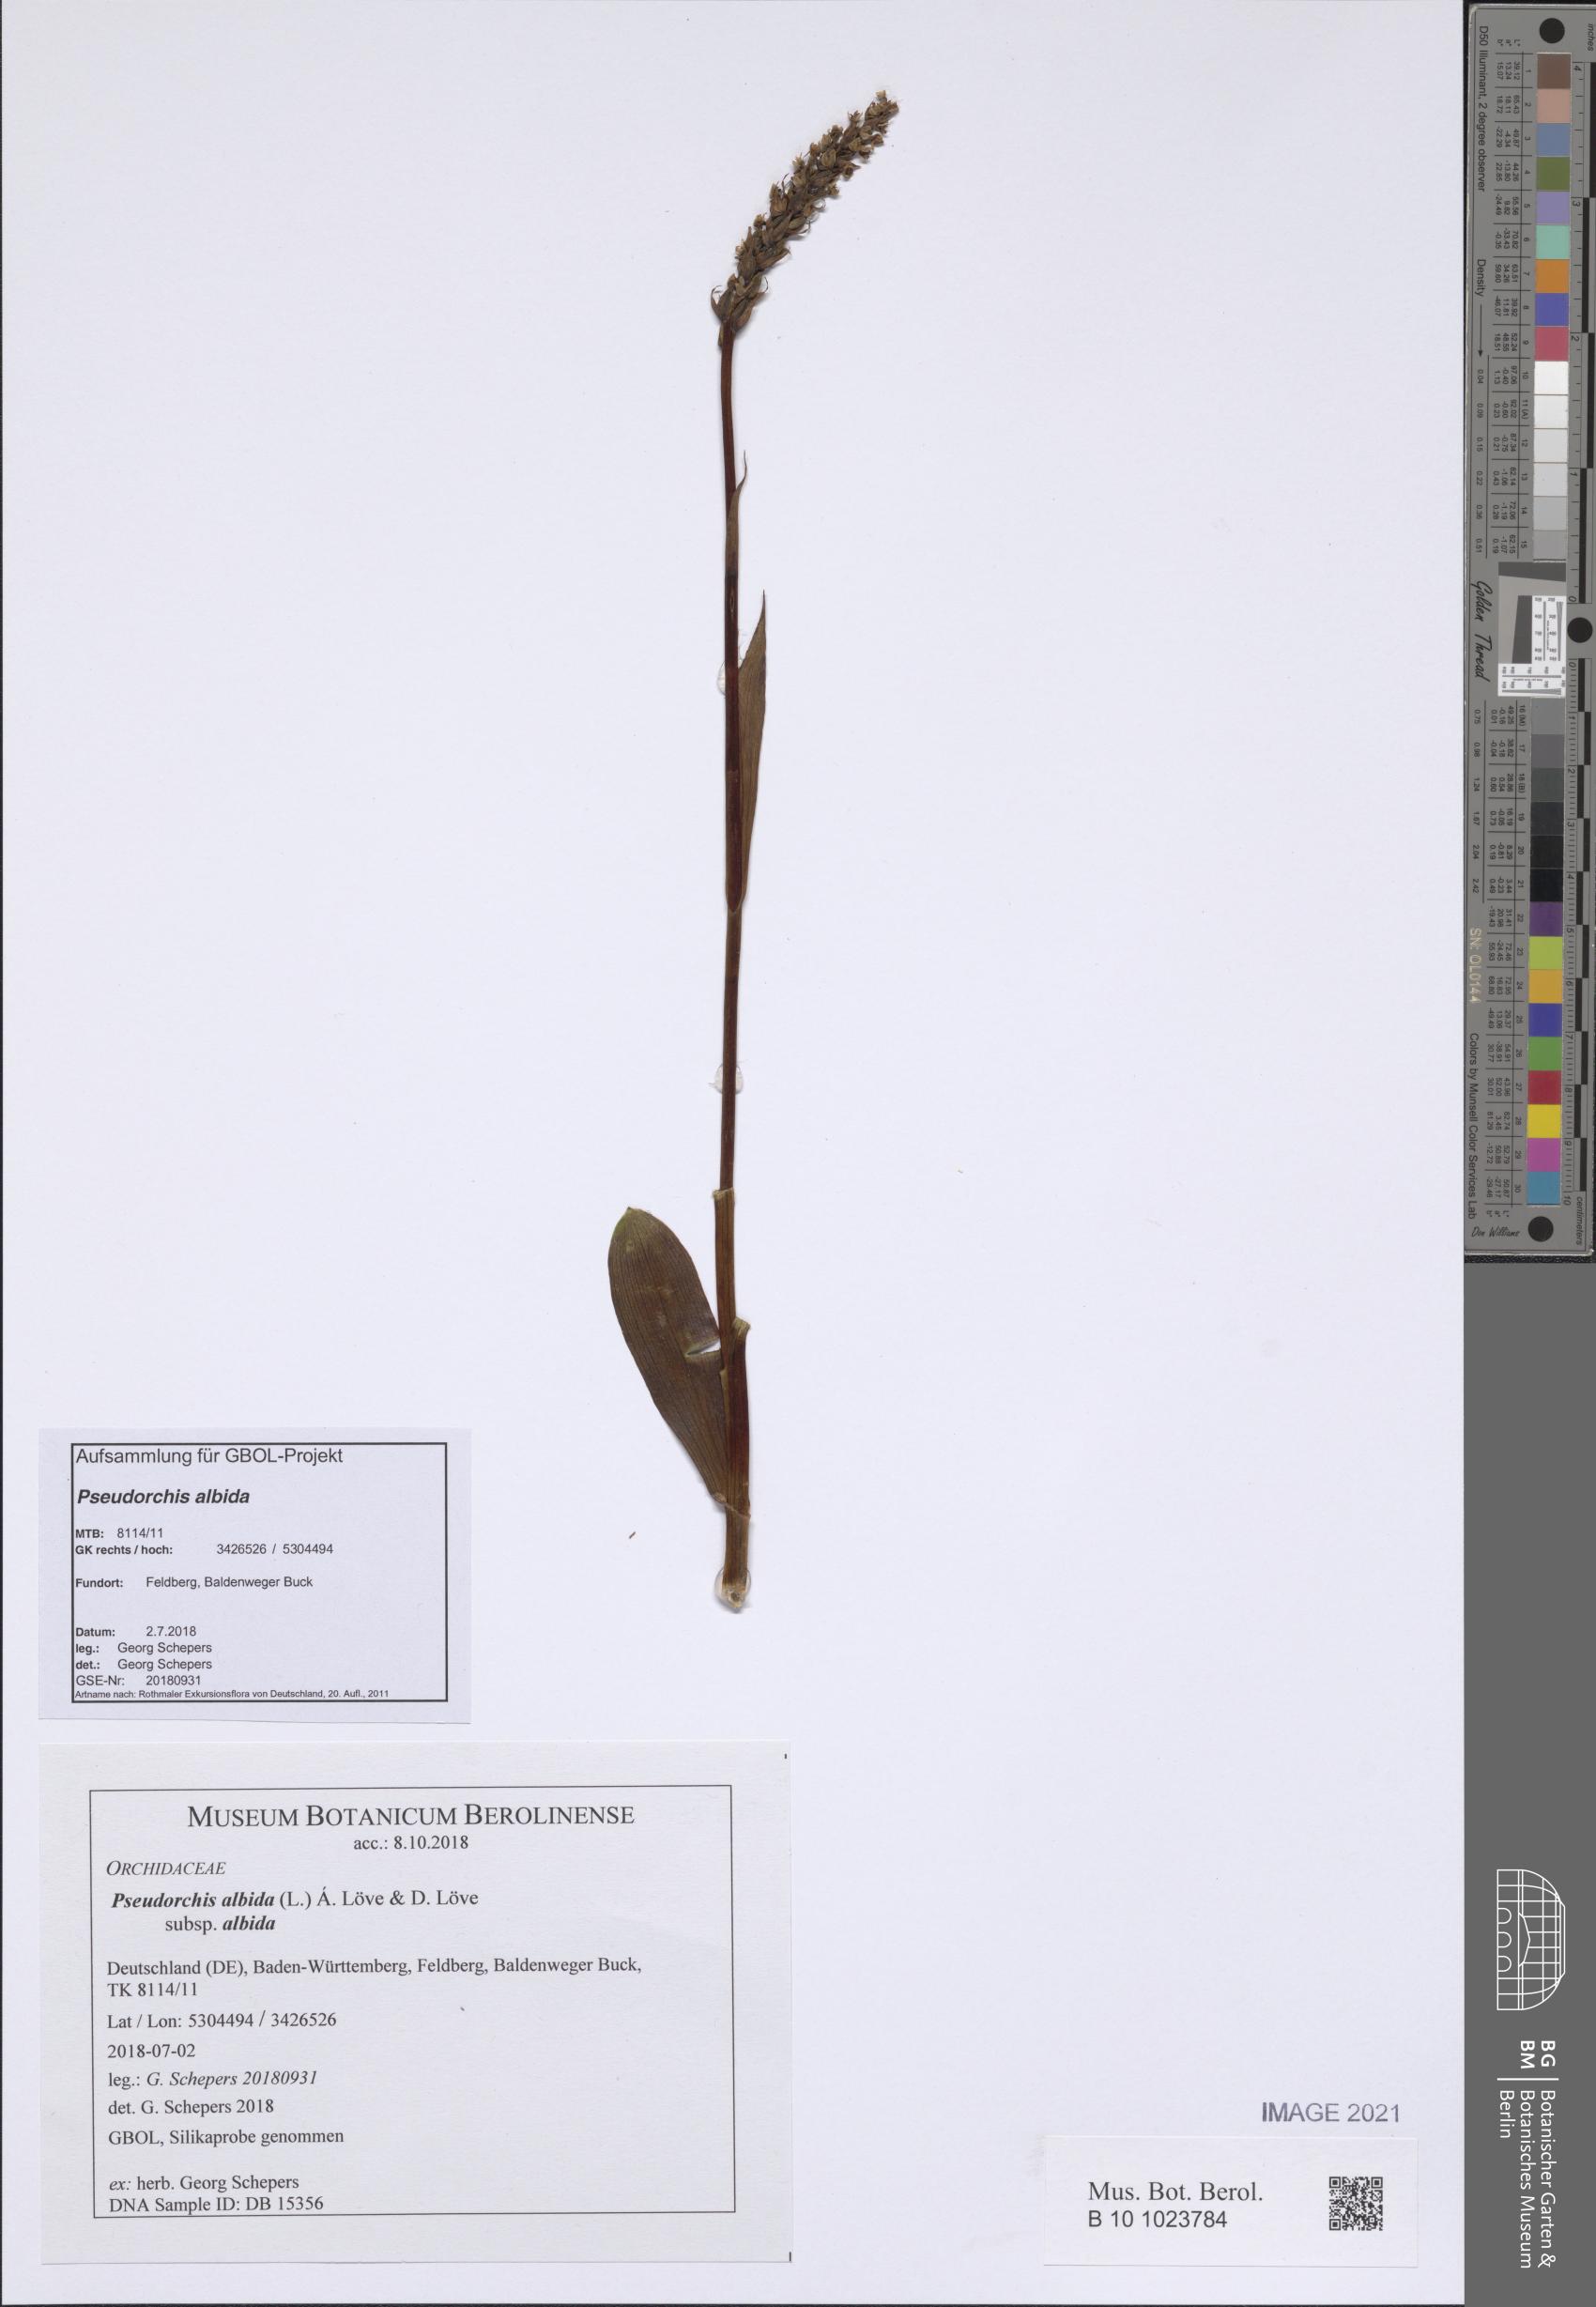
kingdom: Plantae
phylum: Tracheophyta
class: Liliopsida
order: Asparagales
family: Orchidaceae
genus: Pseudorchis
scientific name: Pseudorchis albida
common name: Small-white orchid
